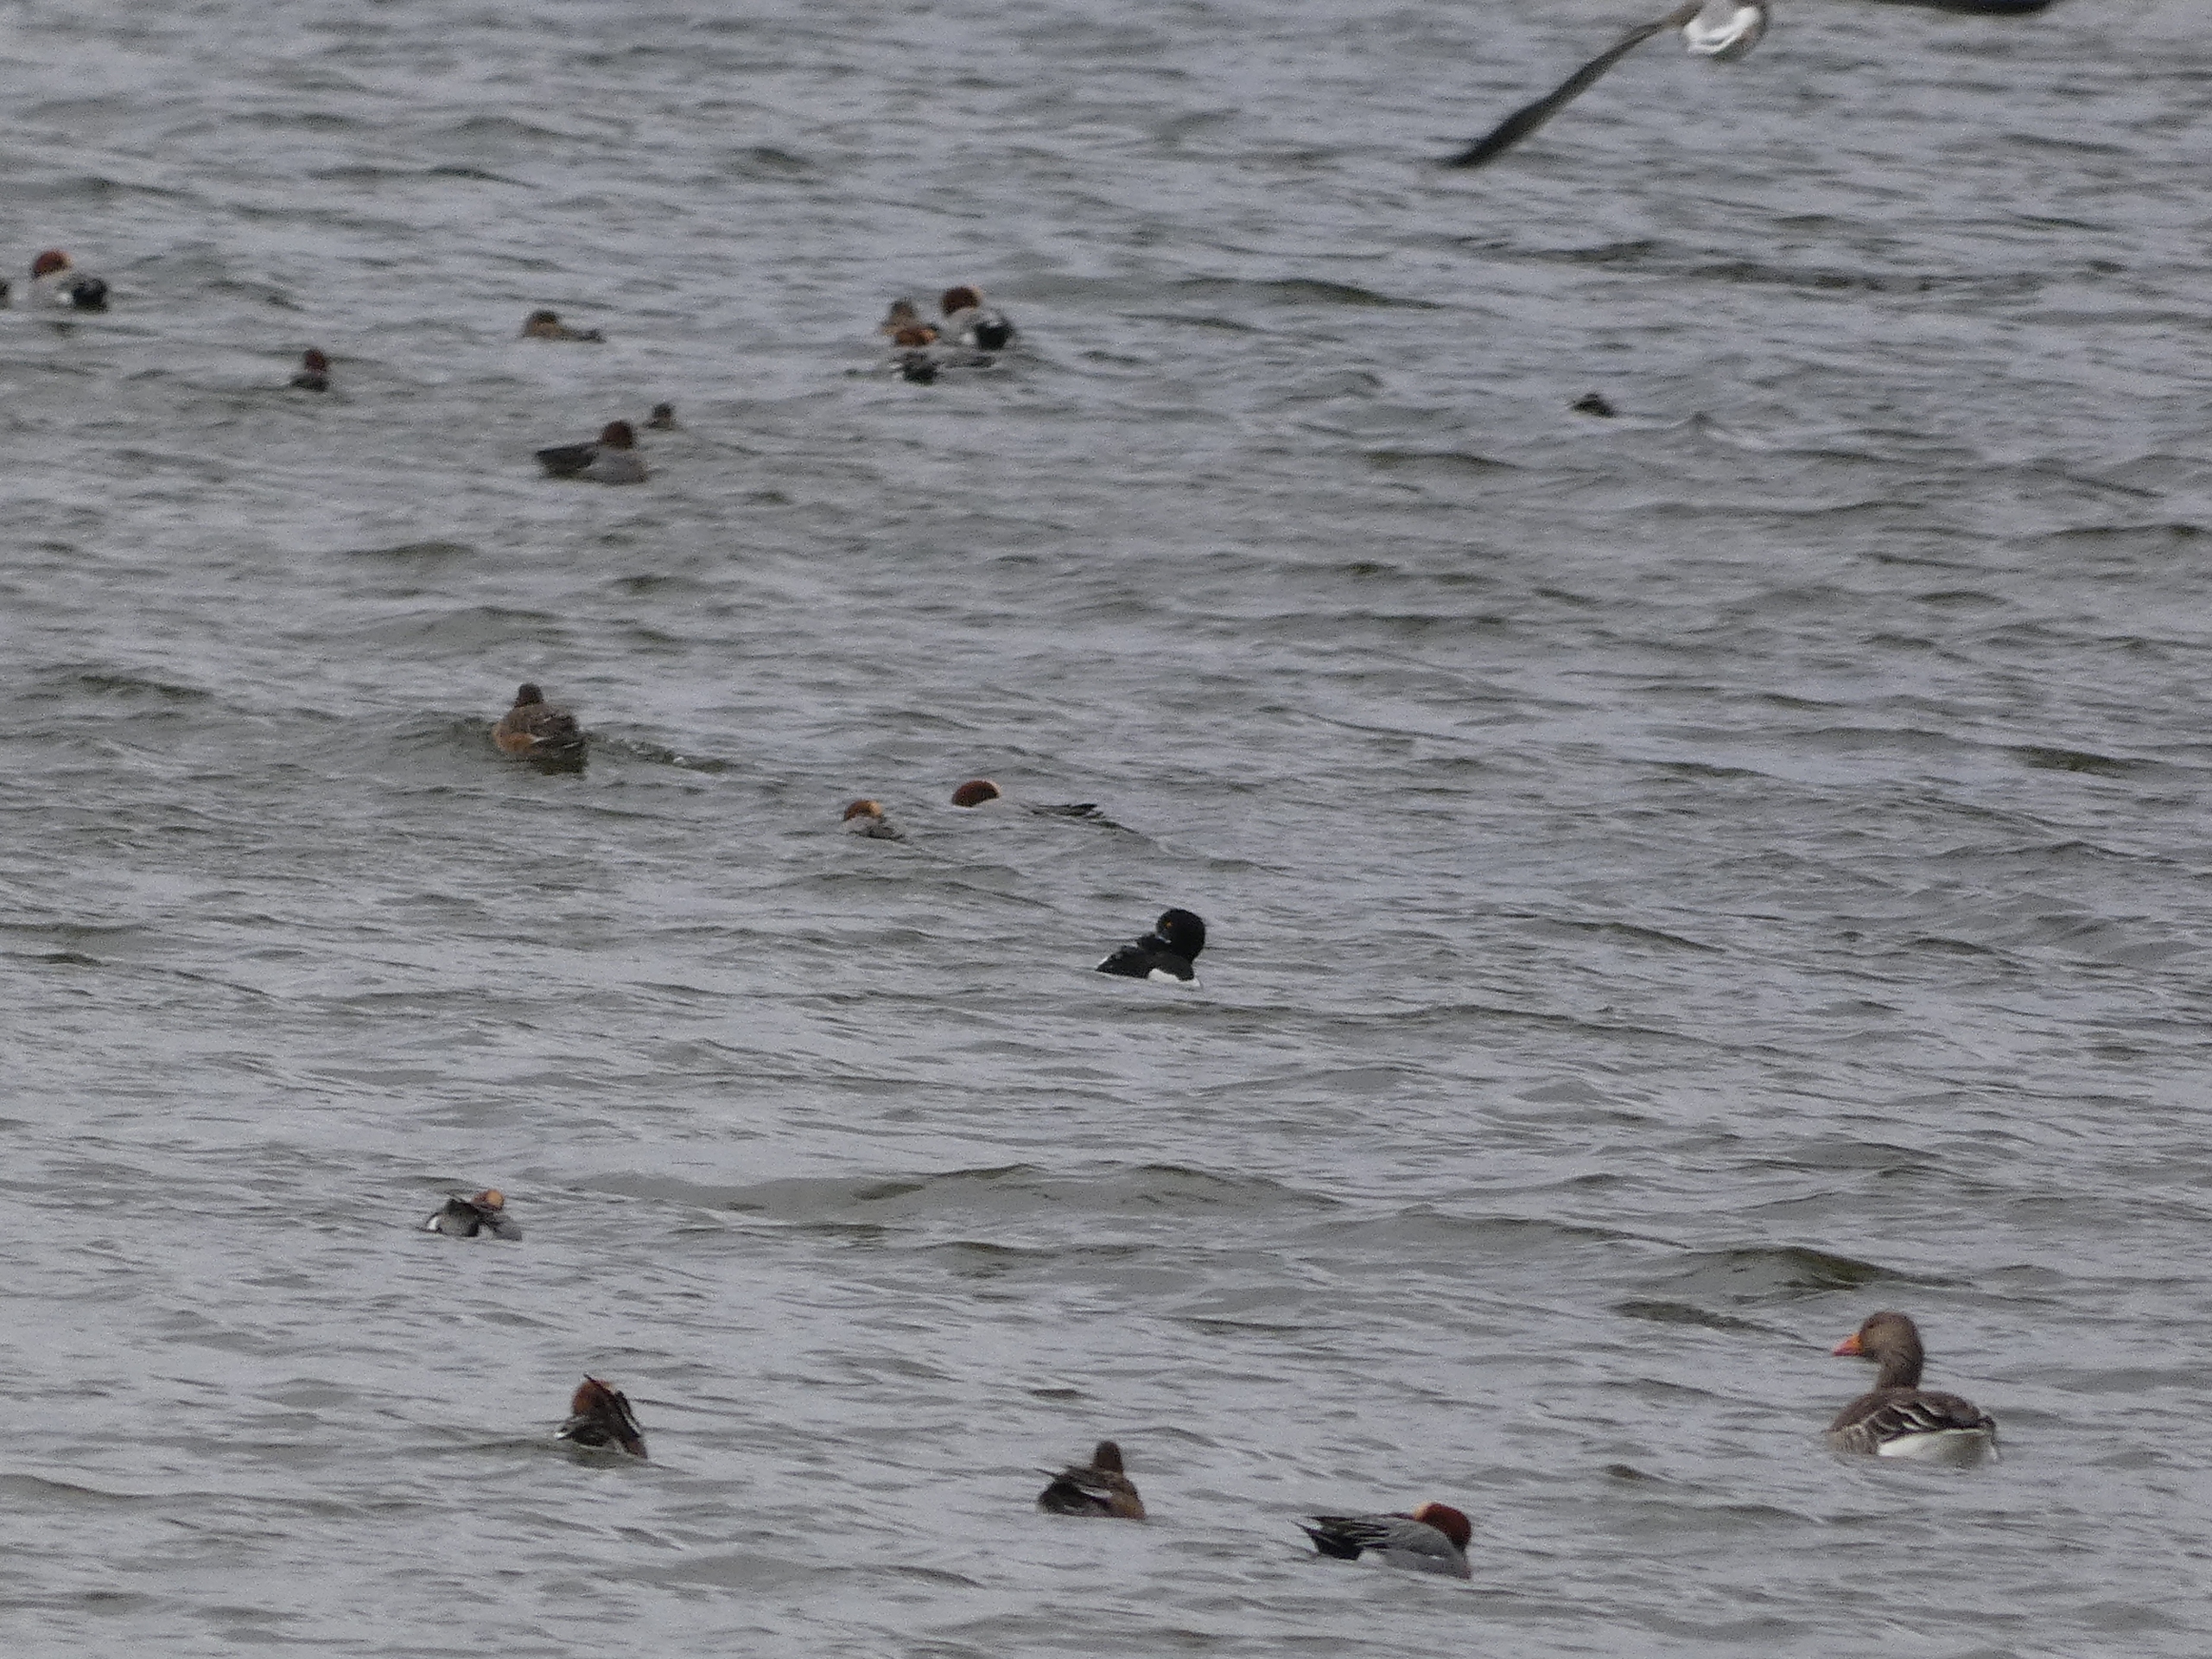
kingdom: Animalia
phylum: Chordata
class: Aves
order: Anseriformes
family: Anatidae
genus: Aythya
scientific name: Aythya fuligula
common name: Troldand
